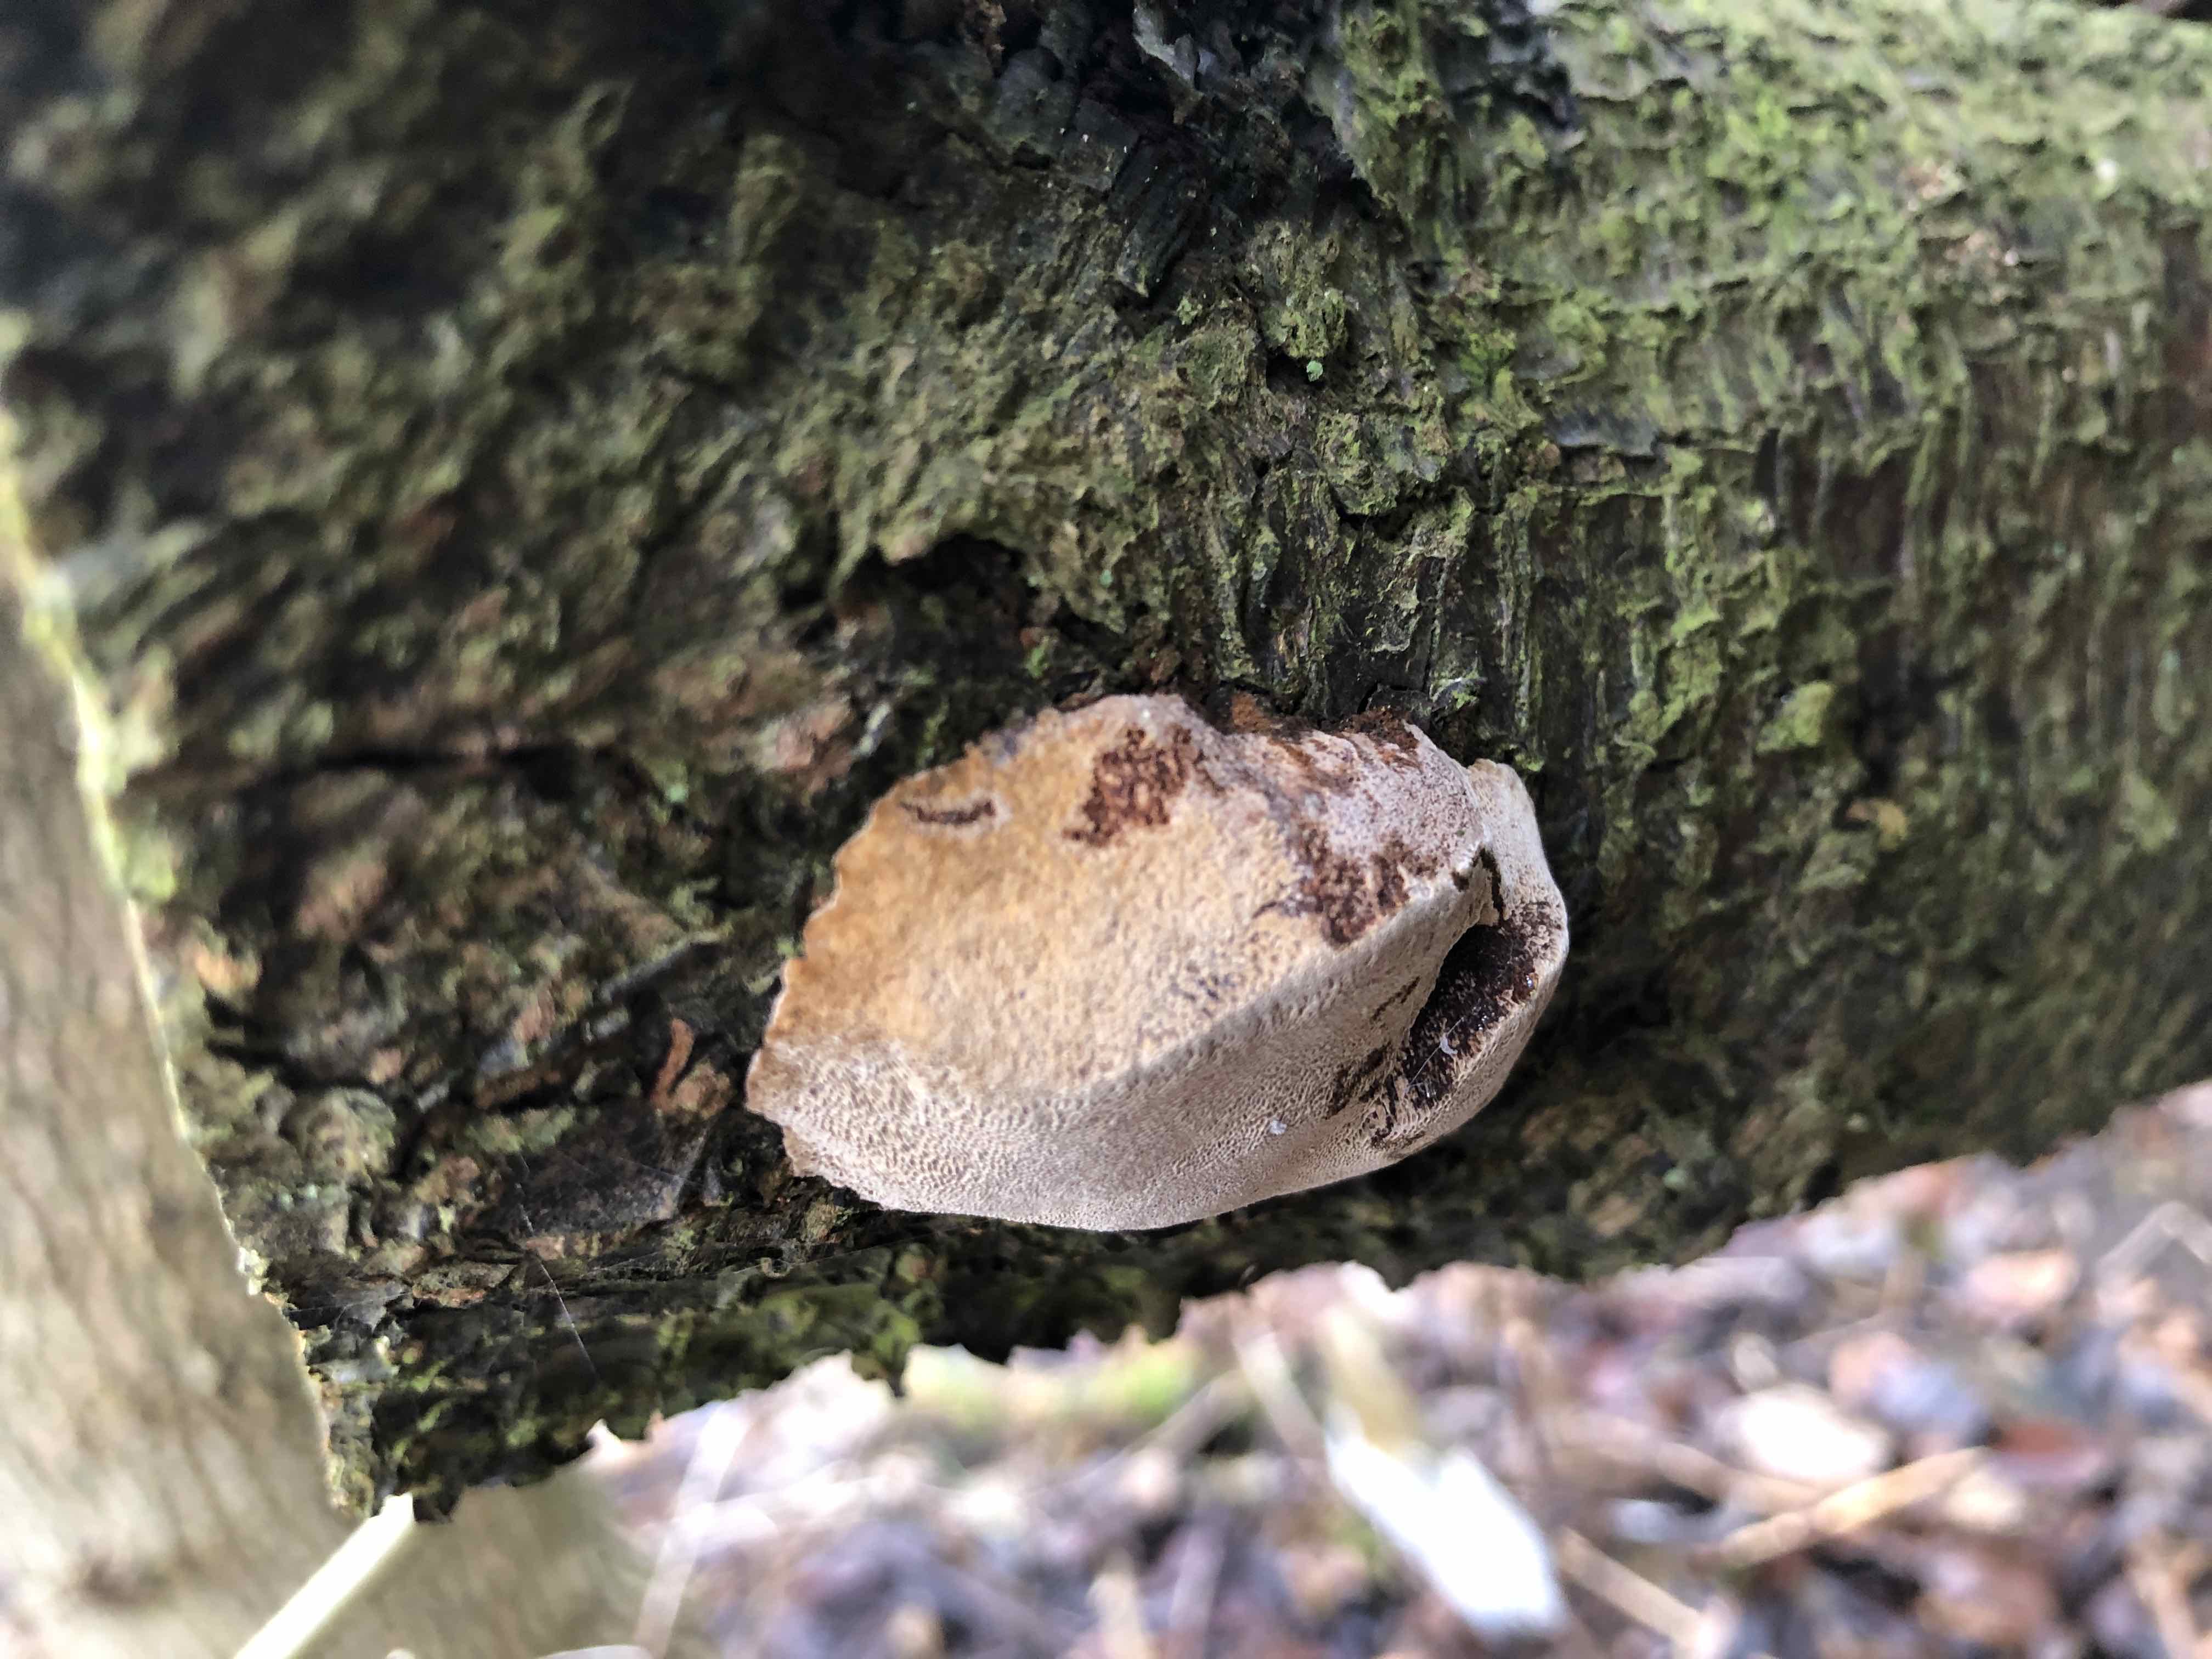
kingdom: Fungi
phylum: Basidiomycota
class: Agaricomycetes
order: Hymenochaetales
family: Hymenochaetaceae
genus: Phellinus
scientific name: Phellinus pomaceus
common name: blomme-ildporesvamp
